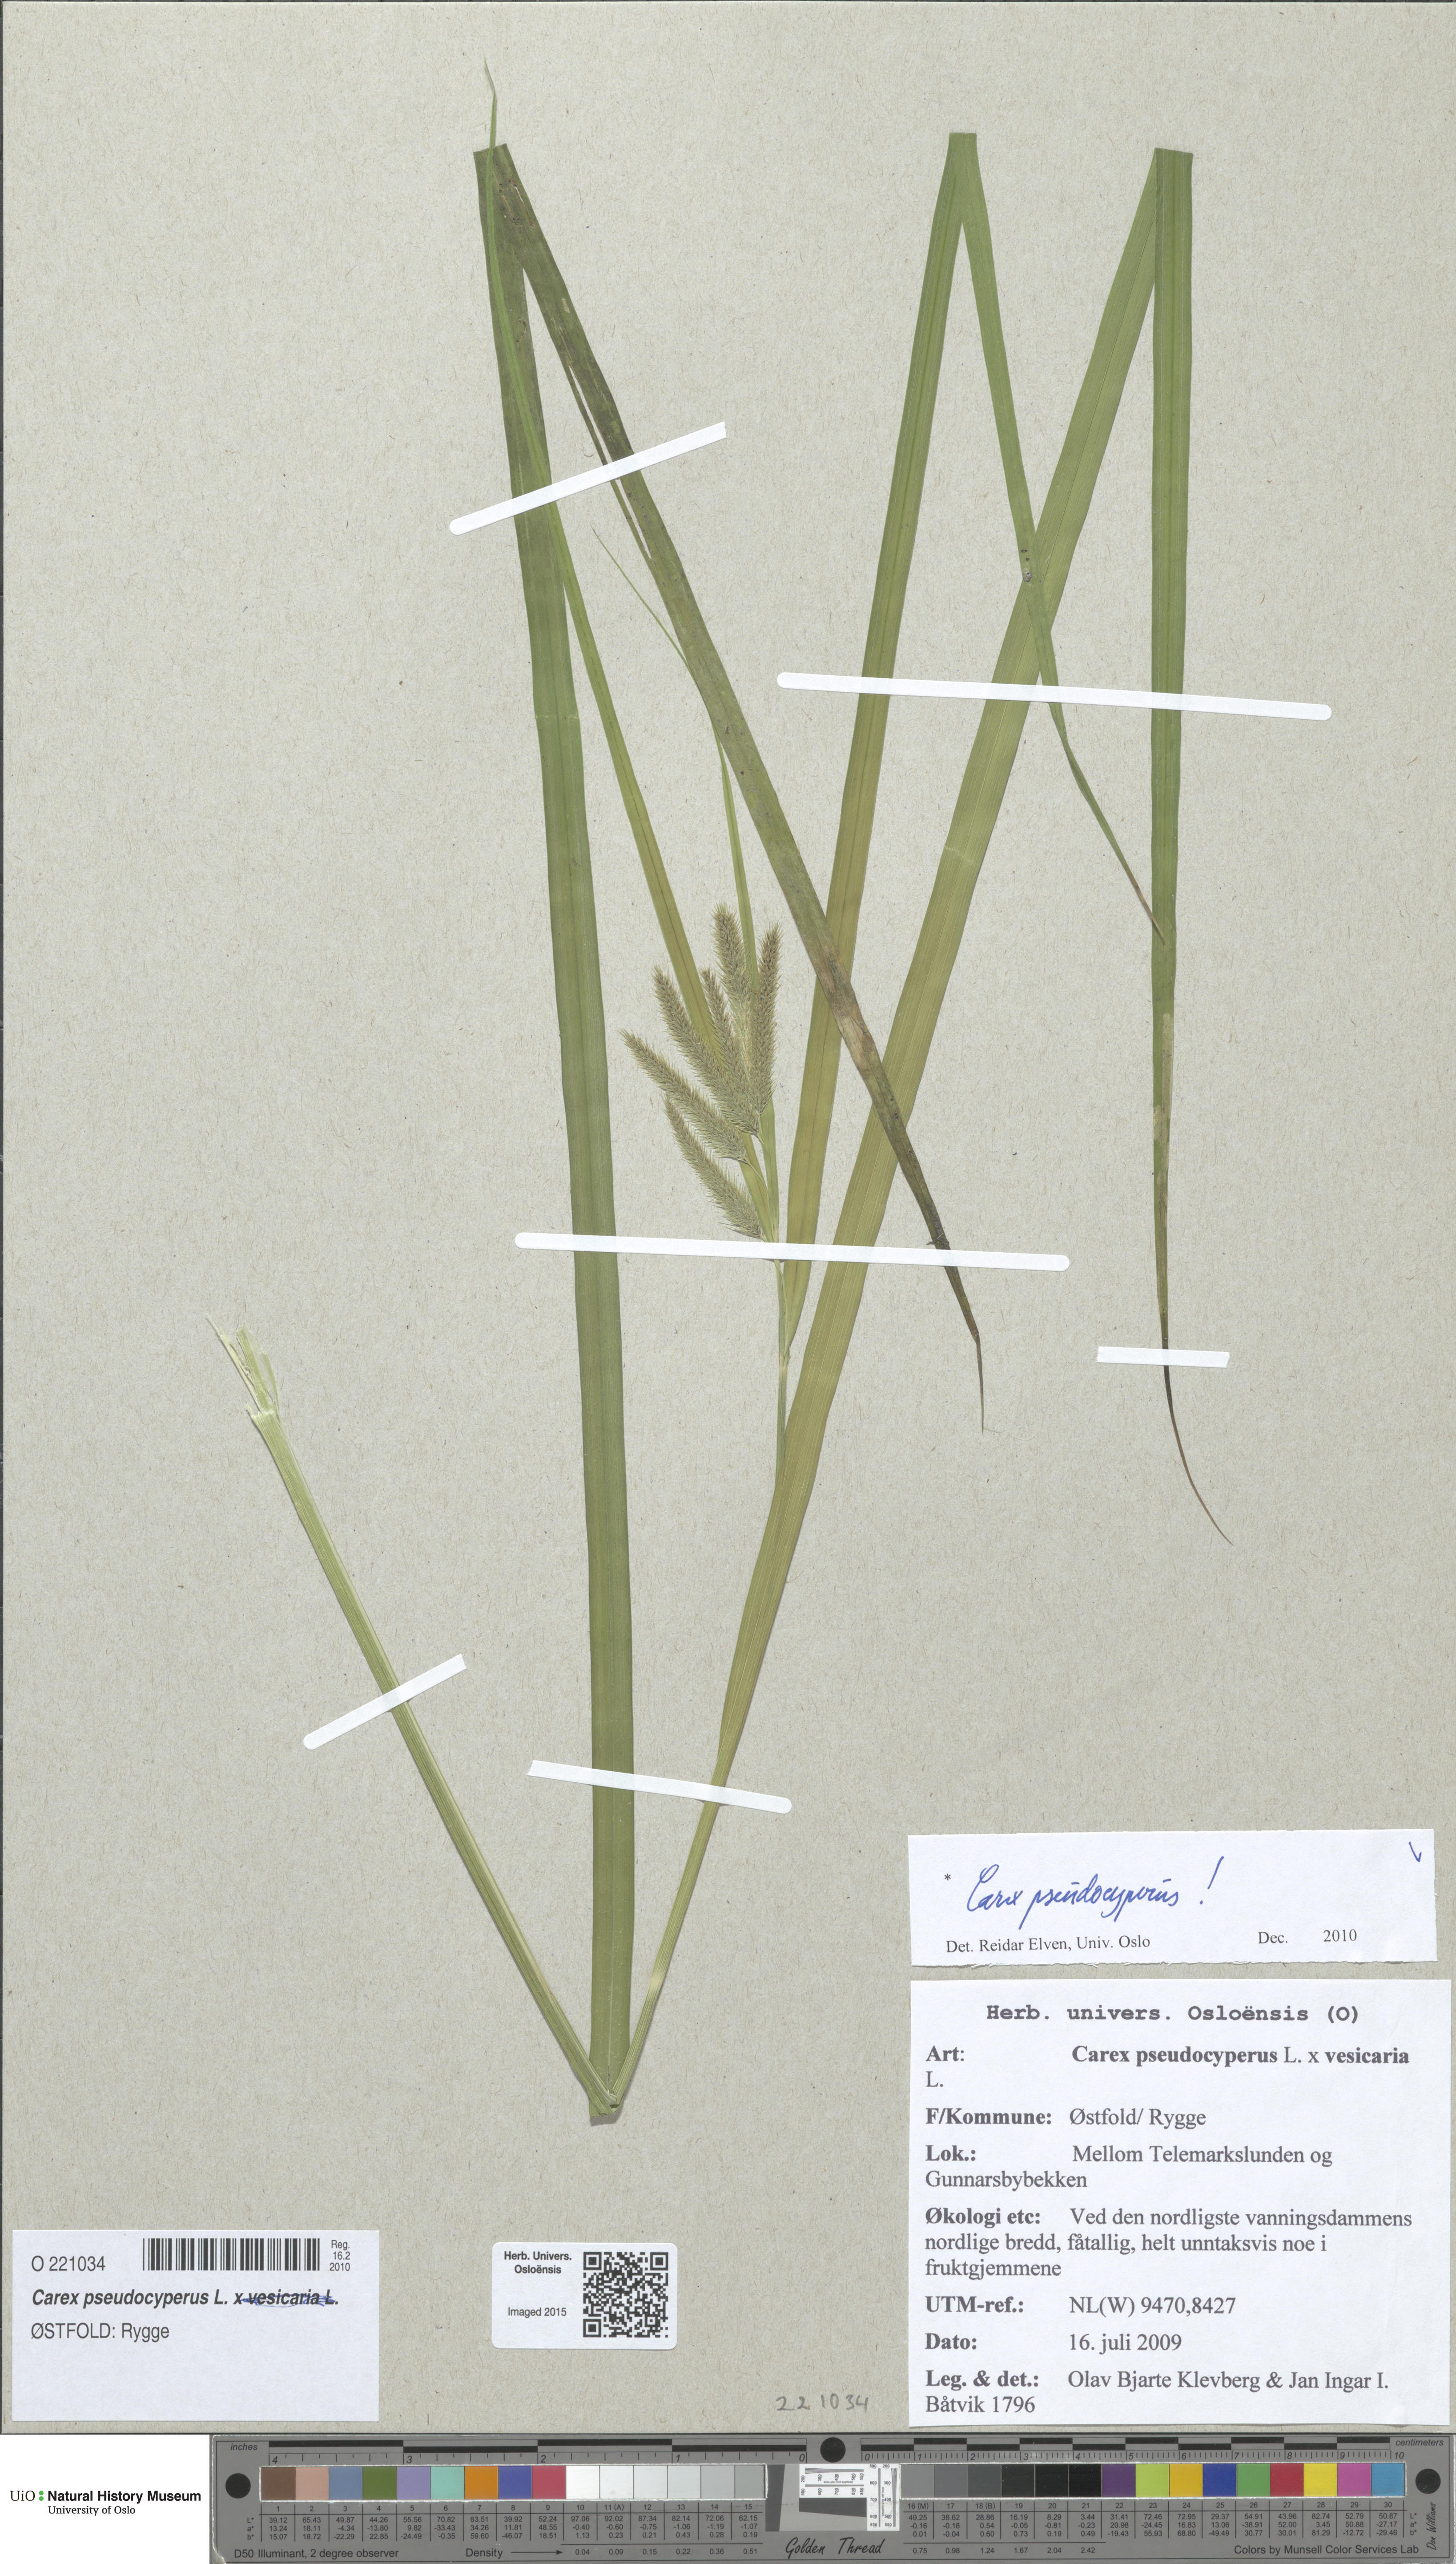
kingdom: Plantae
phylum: Tracheophyta
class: Liliopsida
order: Poales
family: Cyperaceae
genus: Carex
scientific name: Carex pseudocyperus
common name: Cyperus sedge
